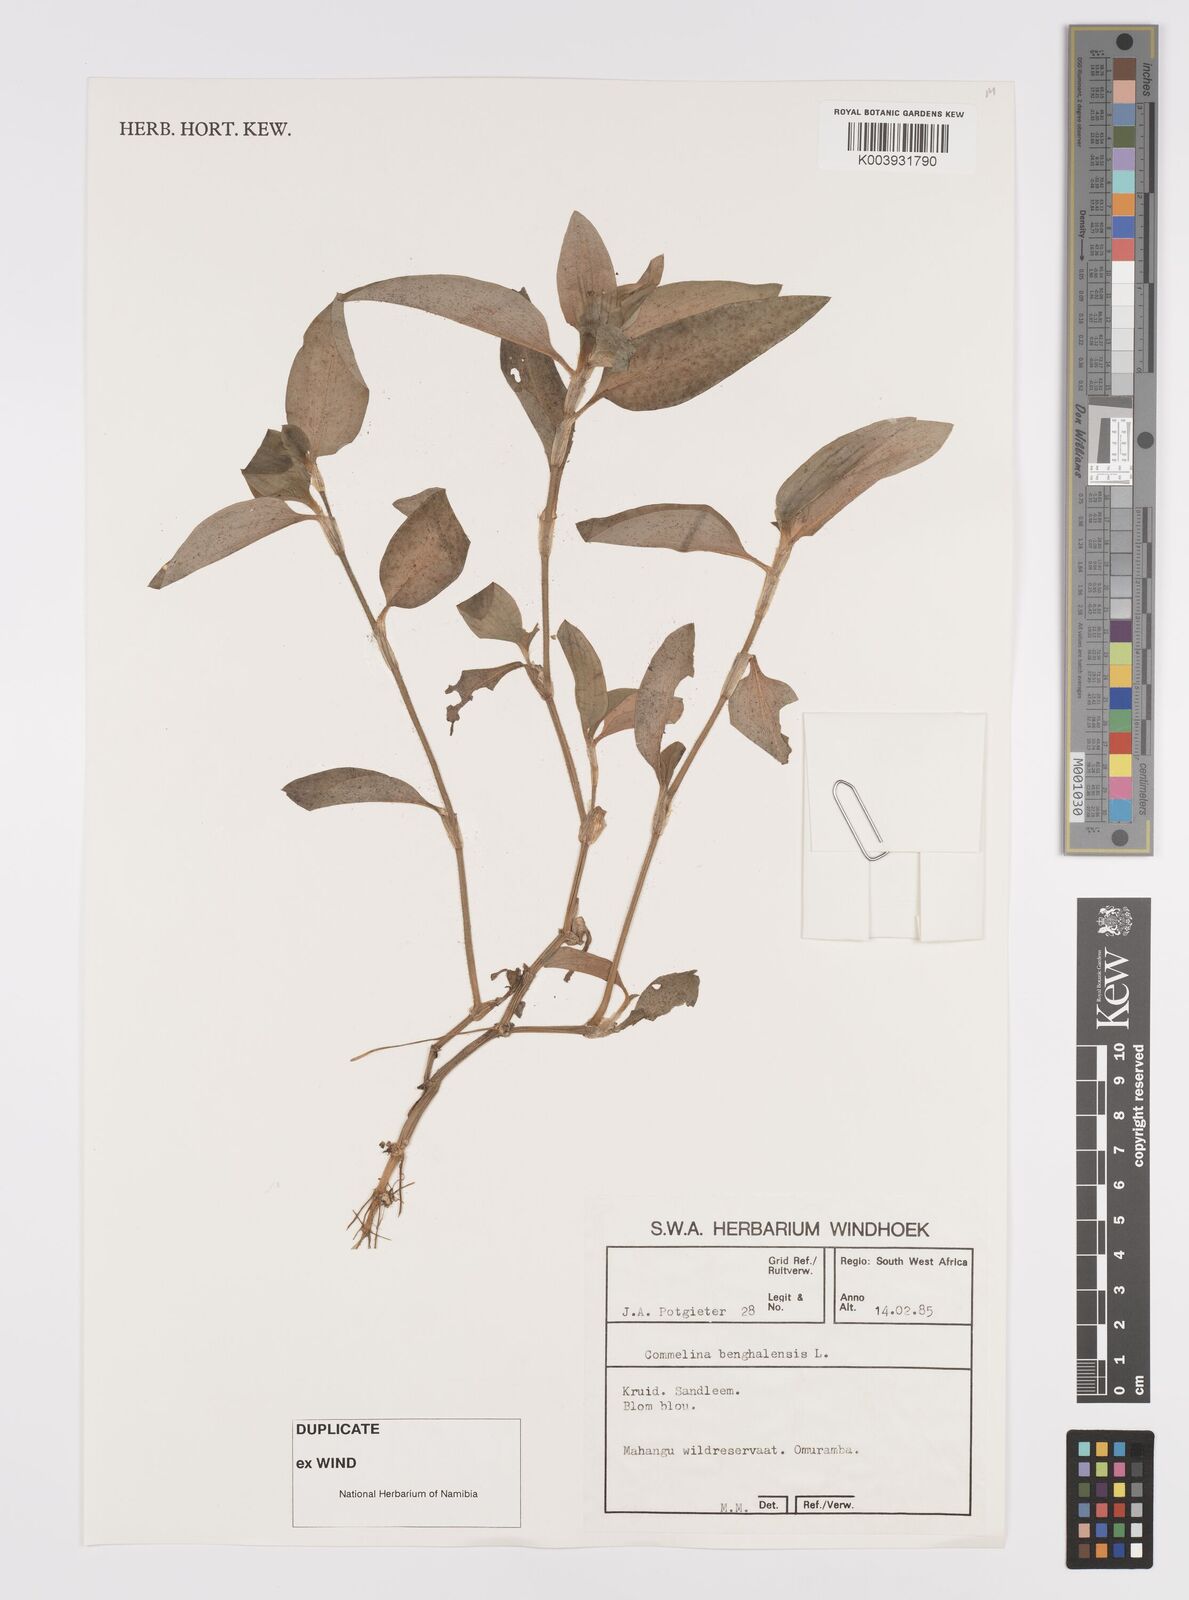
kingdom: Plantae
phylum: Tracheophyta
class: Liliopsida
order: Commelinales
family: Commelinaceae
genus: Commelina
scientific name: Commelina benghalensis
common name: Jio
